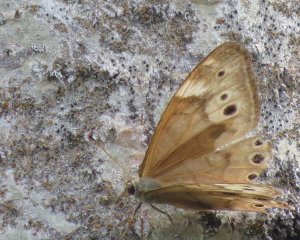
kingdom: Animalia
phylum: Arthropoda
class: Insecta
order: Lepidoptera
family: Nymphalidae
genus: Lethe
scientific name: Lethe anthedon
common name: Northern Pearly-Eye
